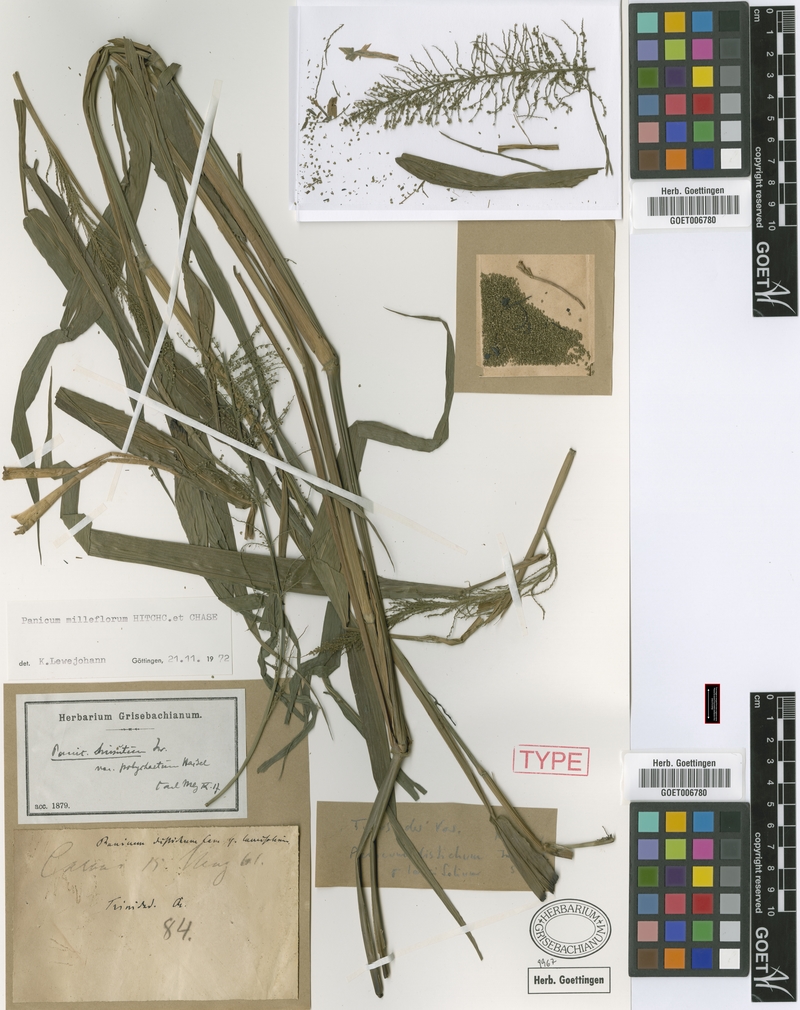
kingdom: Plantae
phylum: Tracheophyta
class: Liliopsida
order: Poales
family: Poaceae
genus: Rugoloa
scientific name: Rugoloa pilosa
